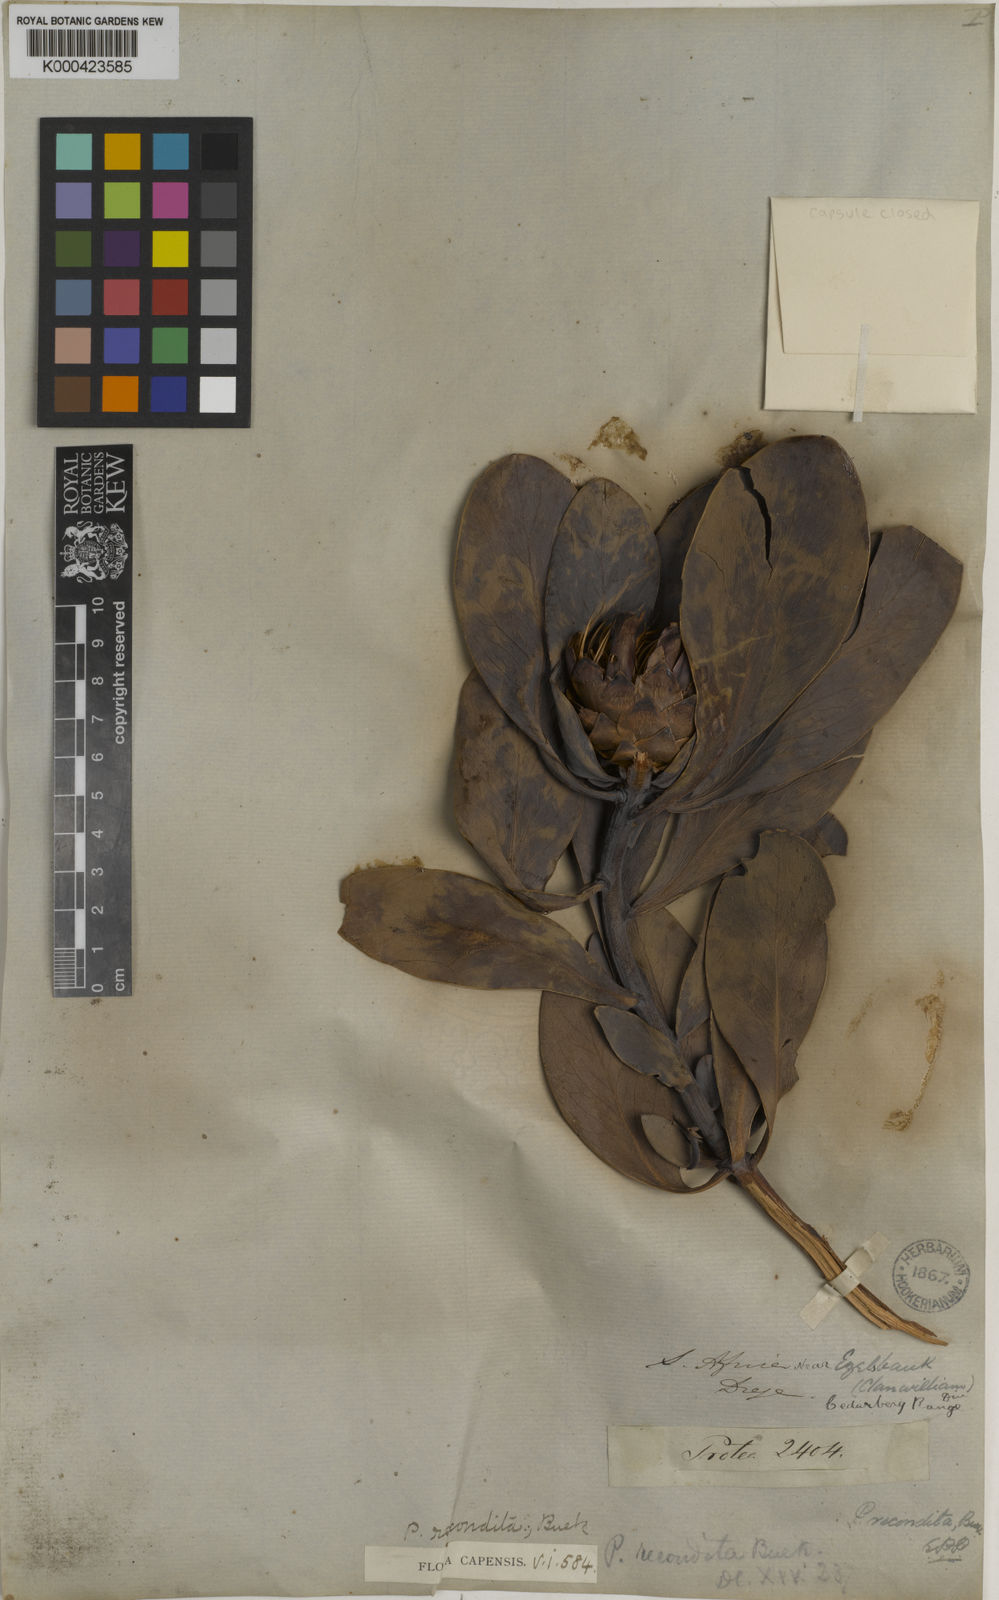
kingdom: Plantae
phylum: Tracheophyta
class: Magnoliopsida
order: Proteales
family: Proteaceae
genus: Protea
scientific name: Protea recondita
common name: Hidden sugarbush
